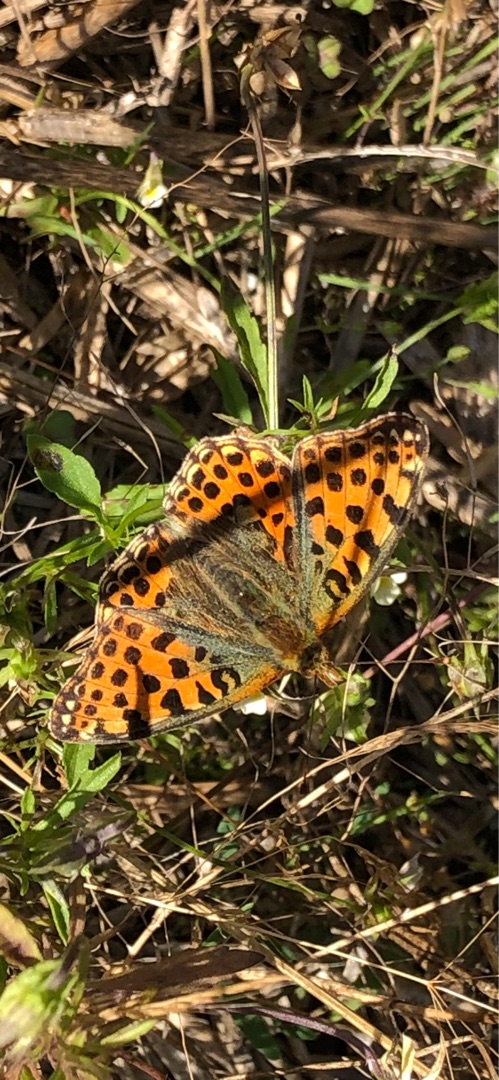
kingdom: Animalia
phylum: Arthropoda
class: Insecta
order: Lepidoptera
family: Nymphalidae
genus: Issoria
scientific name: Issoria lathonia
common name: Storplettet perlemorsommerfugl
